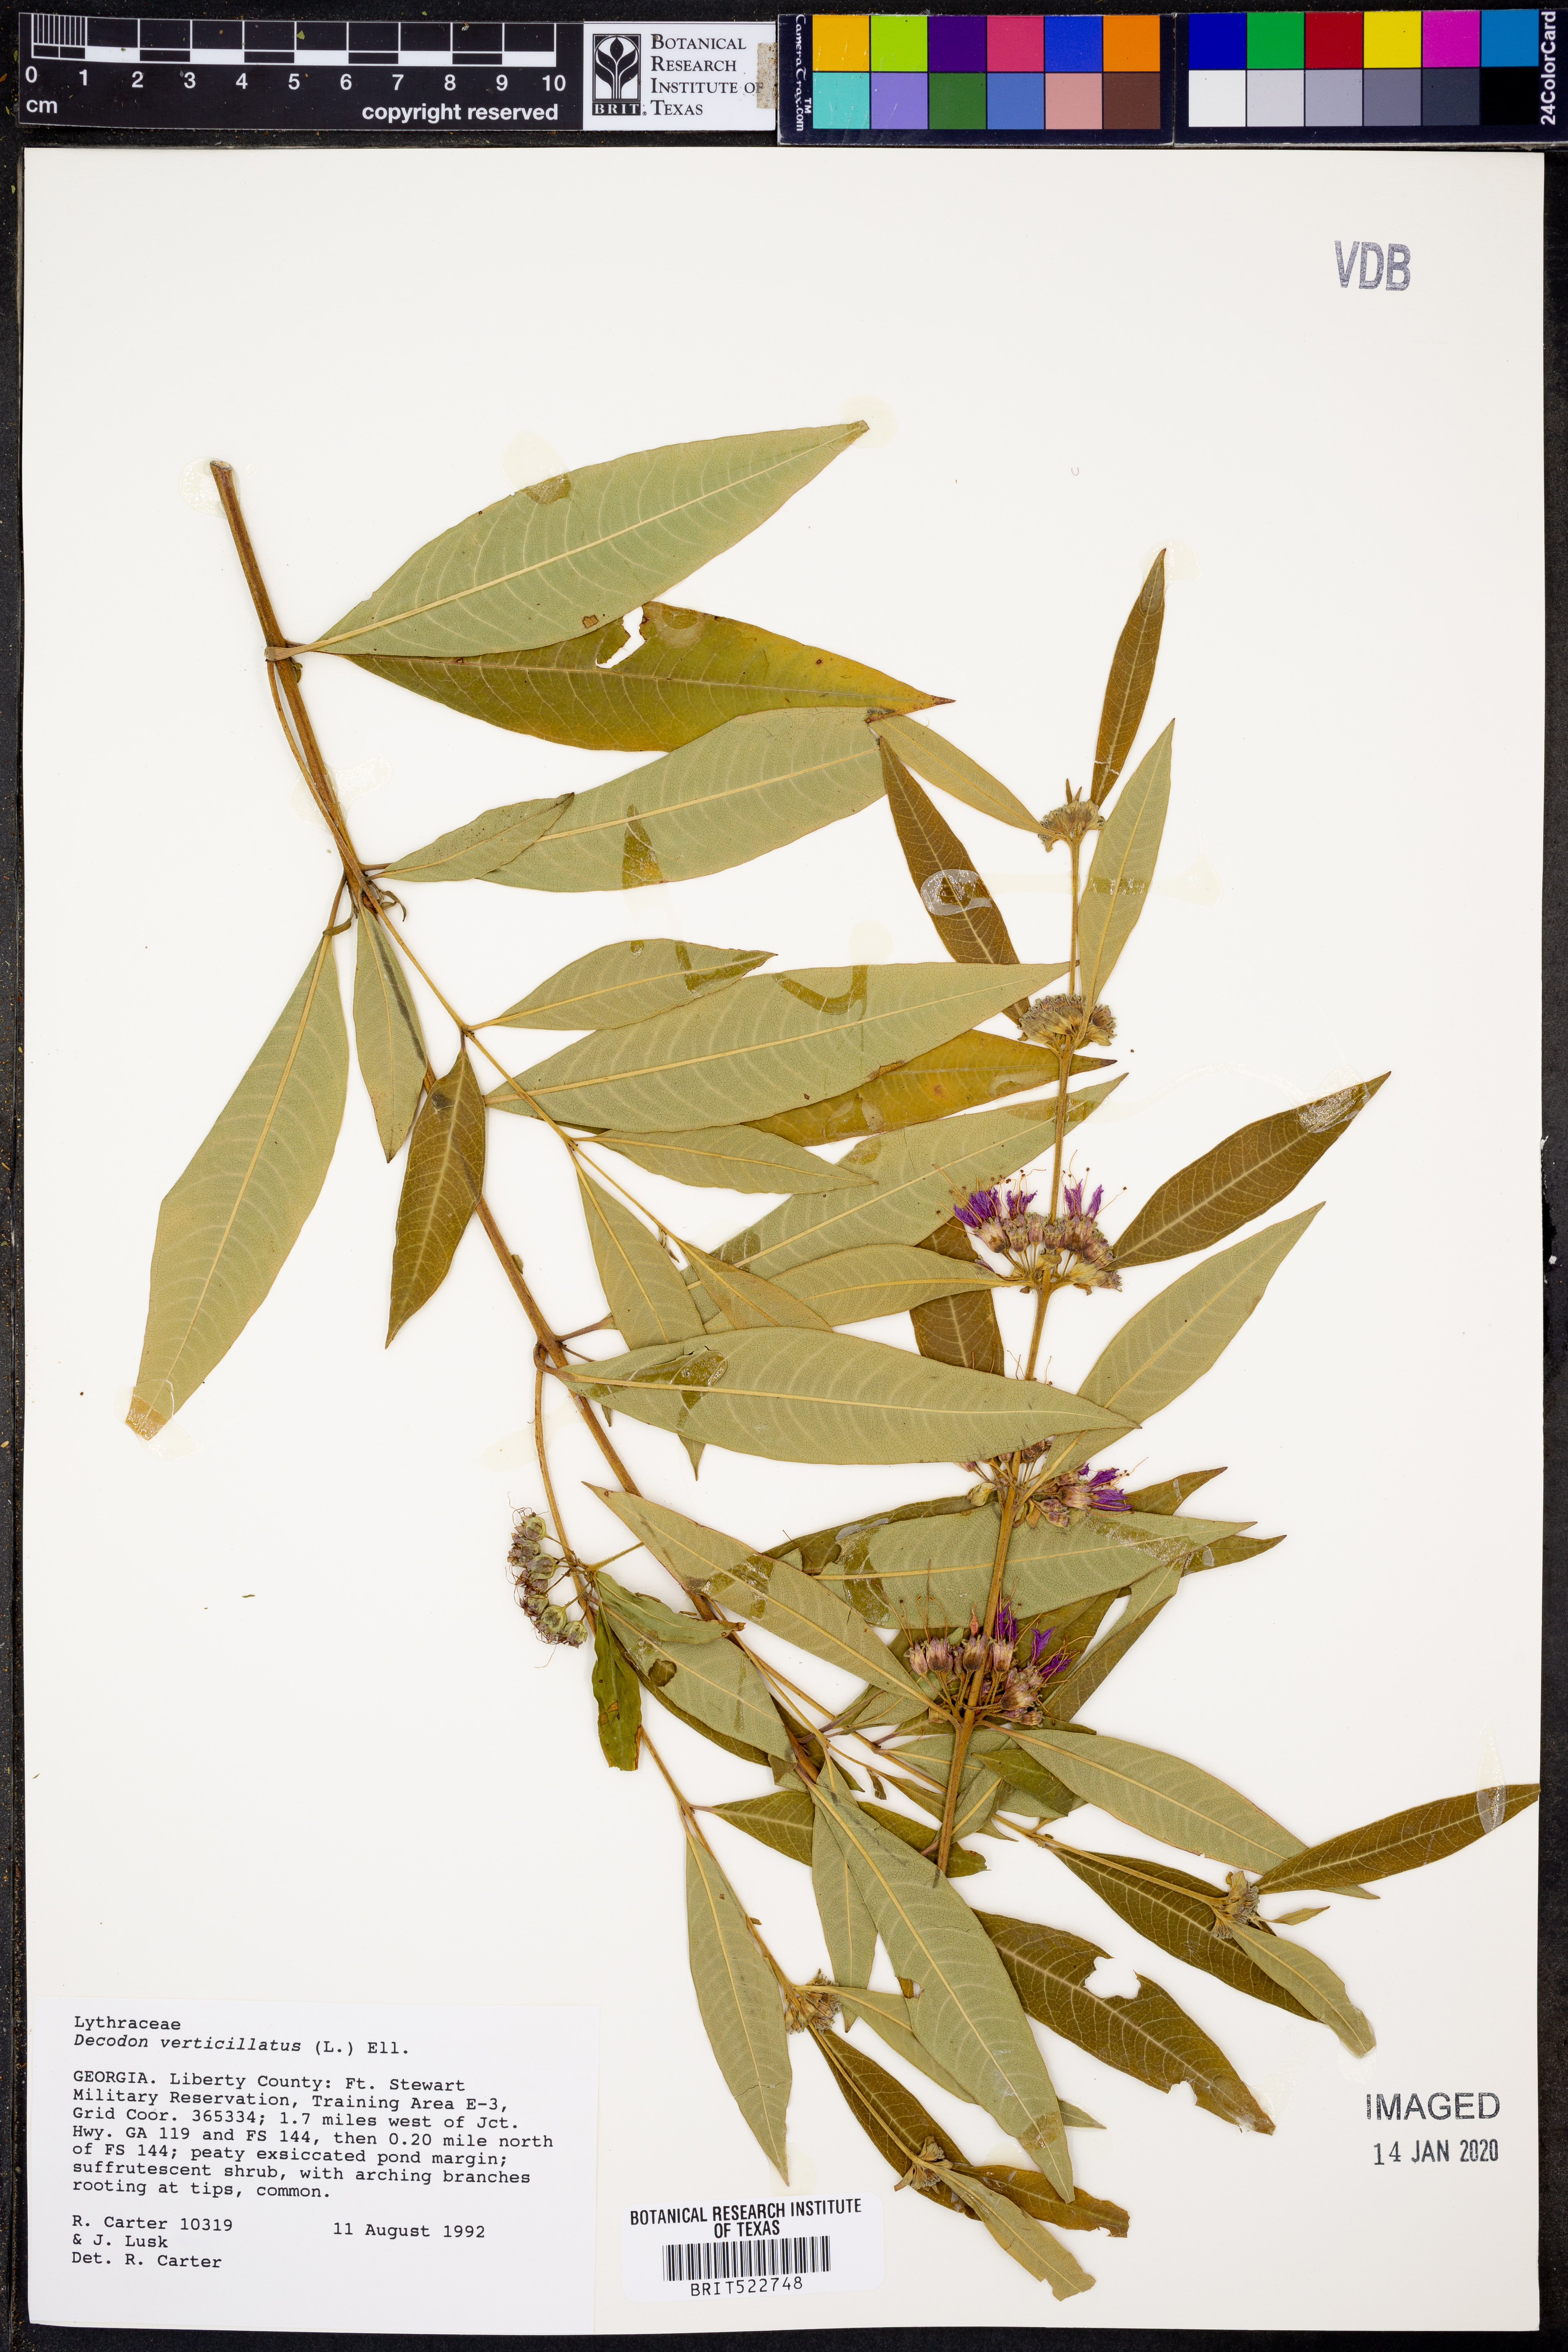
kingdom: Plantae
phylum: Tracheophyta
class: Magnoliopsida
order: Myrtales
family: Lythraceae
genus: Decodon
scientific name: Decodon verticillatus
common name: Hairy swamp loosestrife
